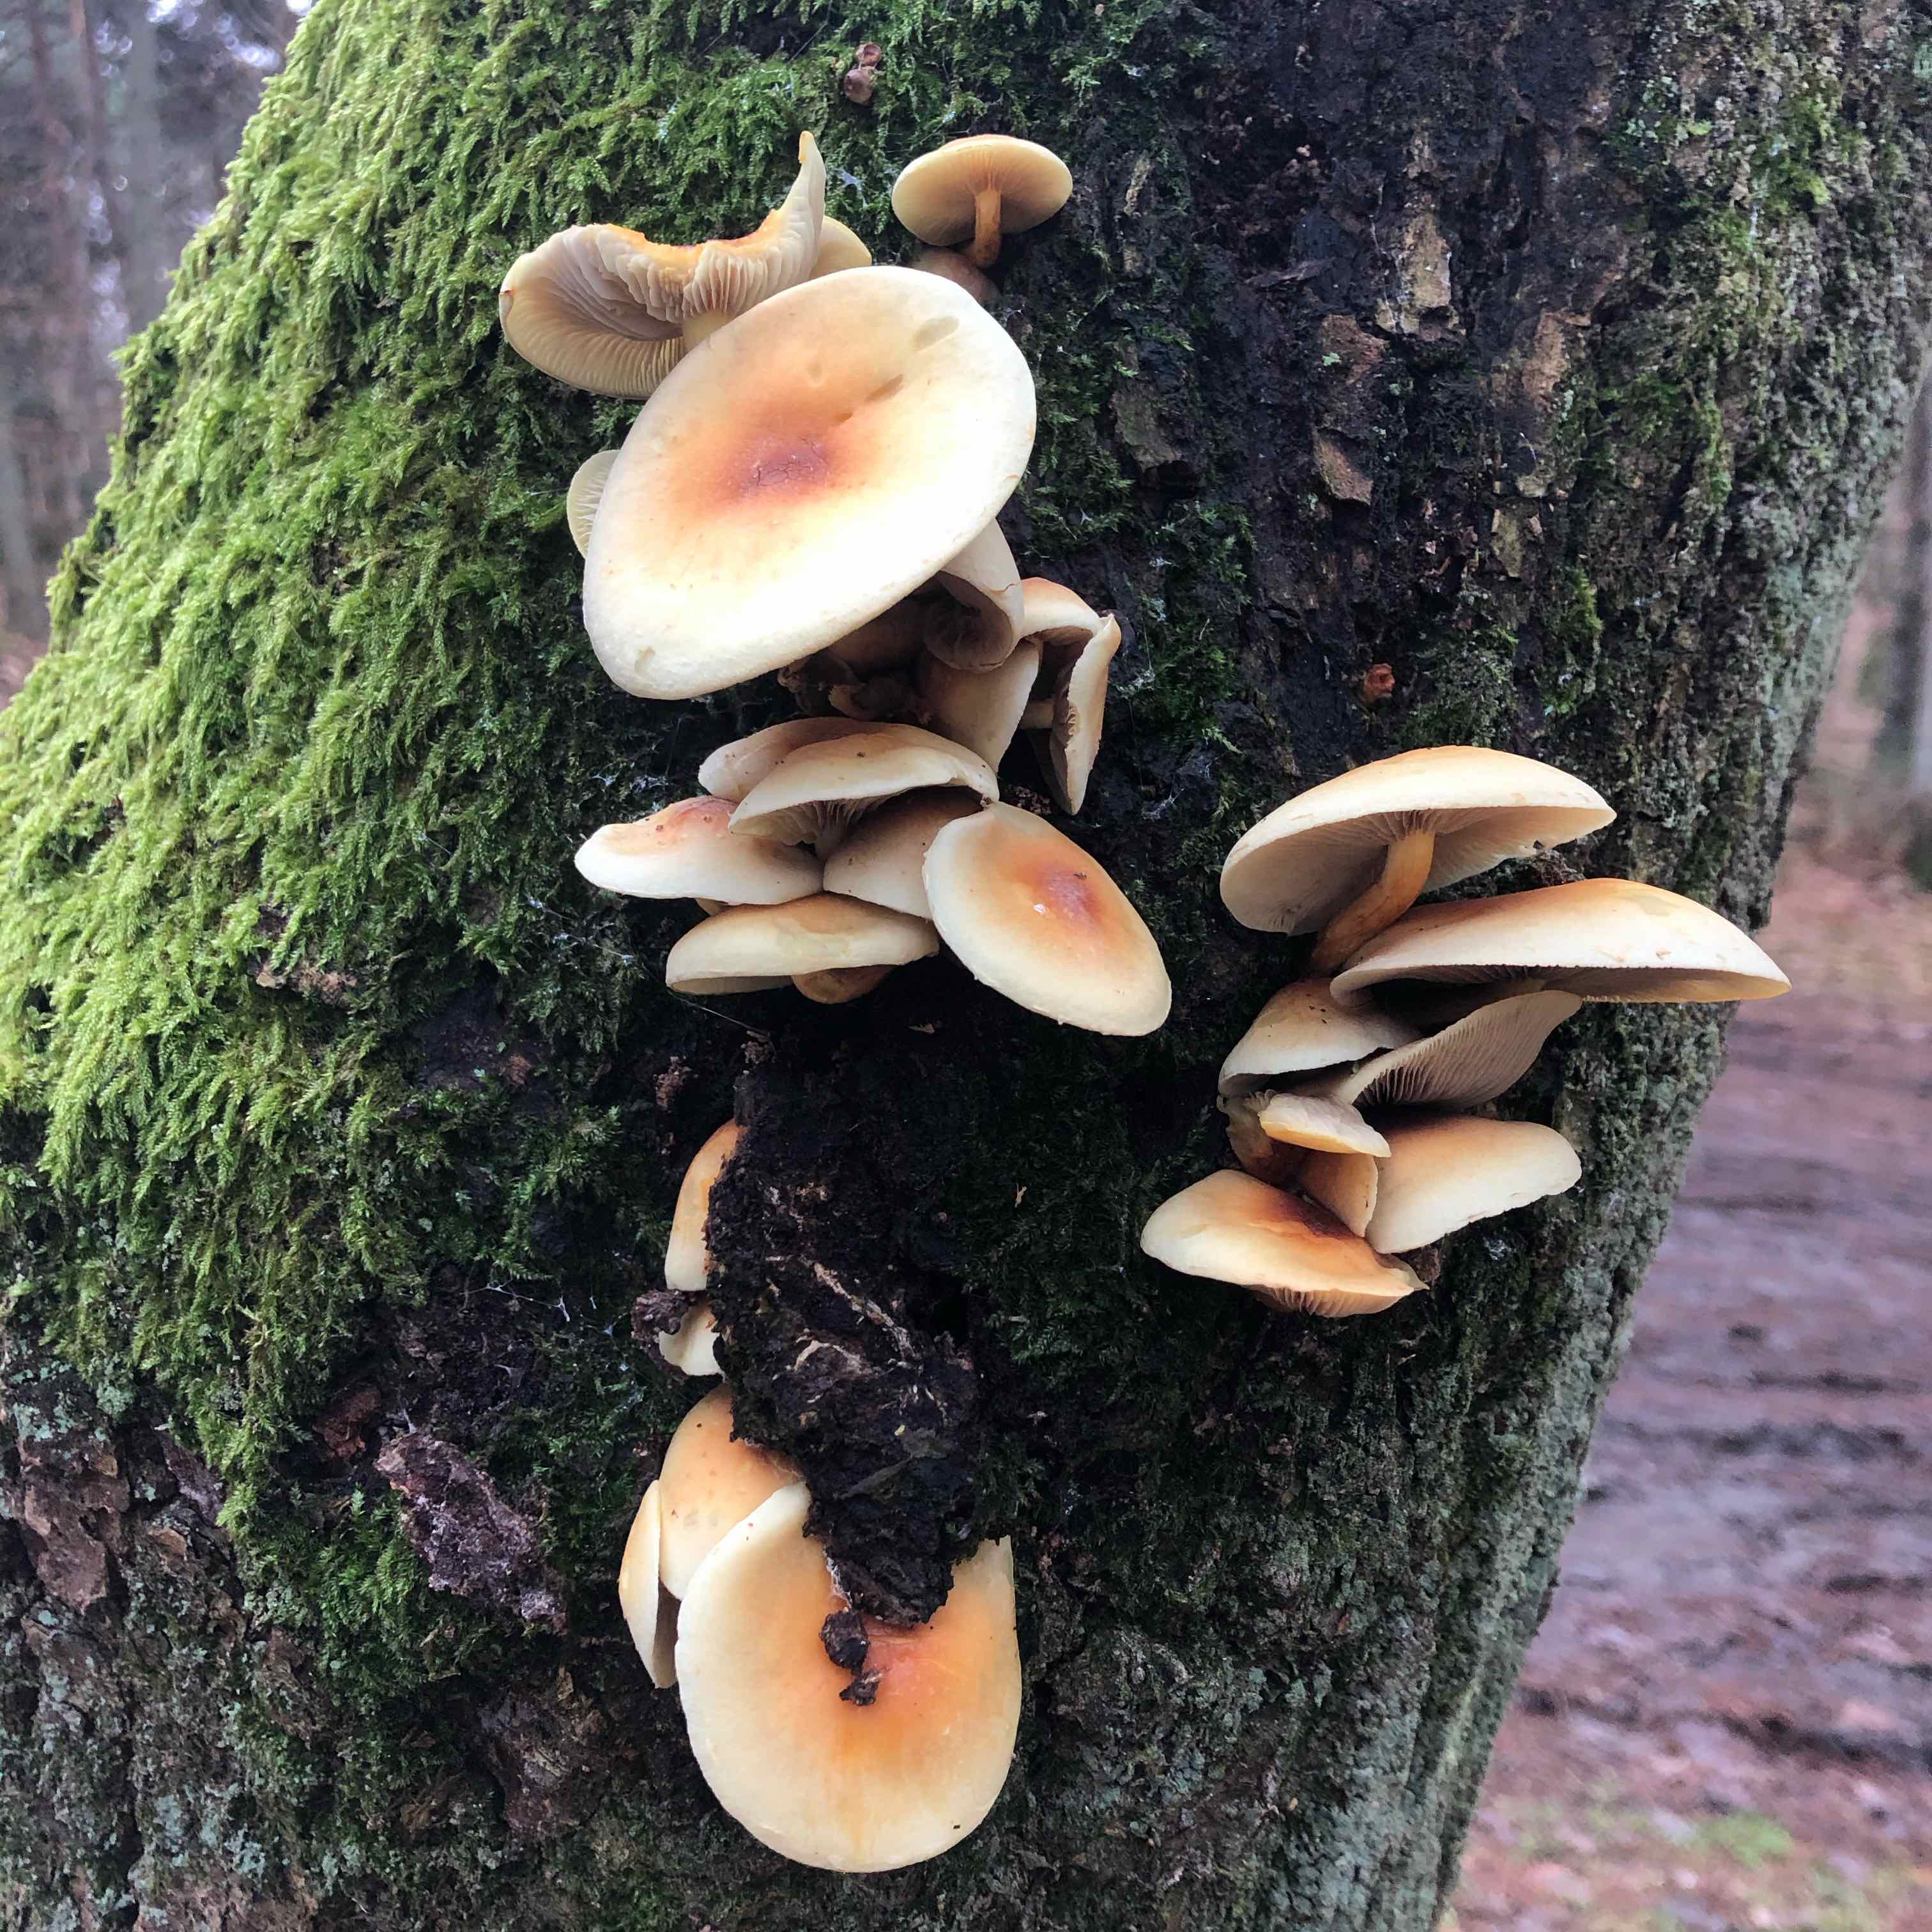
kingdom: Fungi
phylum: Basidiomycota
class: Agaricomycetes
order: Agaricales
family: Strophariaceae
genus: Hypholoma
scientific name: Hypholoma fasciculare
